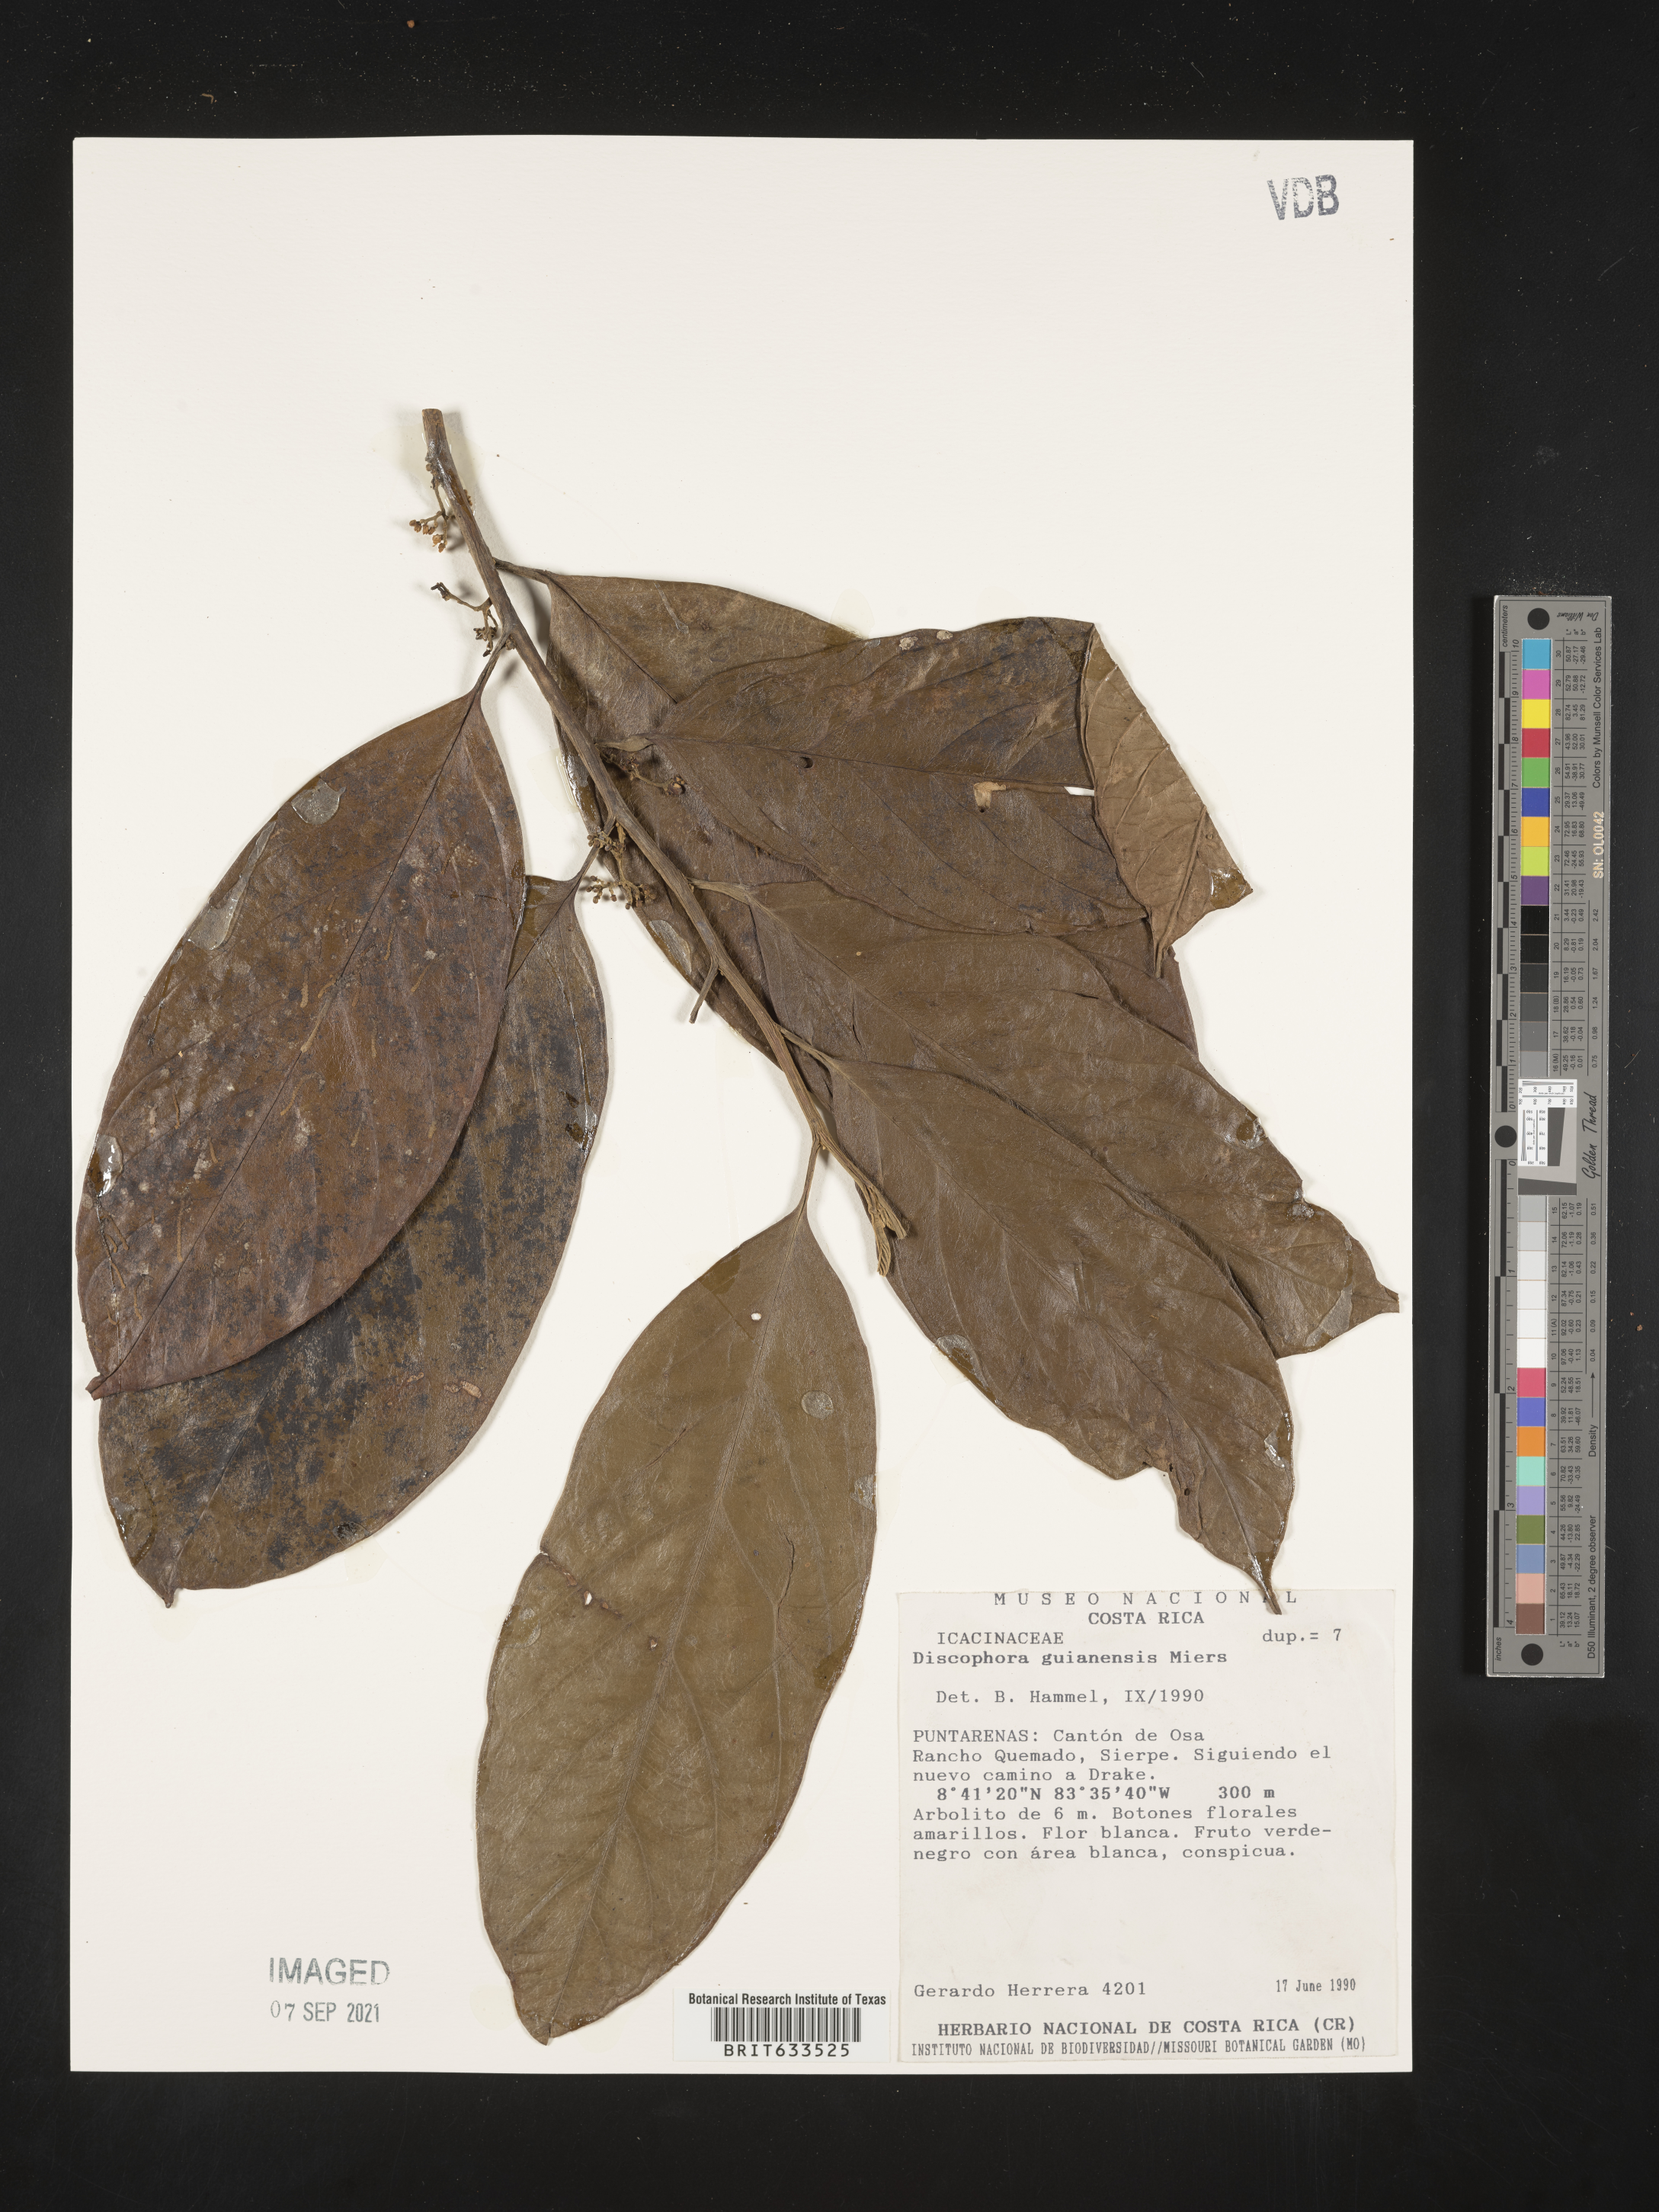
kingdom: Plantae
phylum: Tracheophyta
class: Magnoliopsida
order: Cardiopteridales
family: Stemonuraceae
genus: Discophora
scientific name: Discophora
